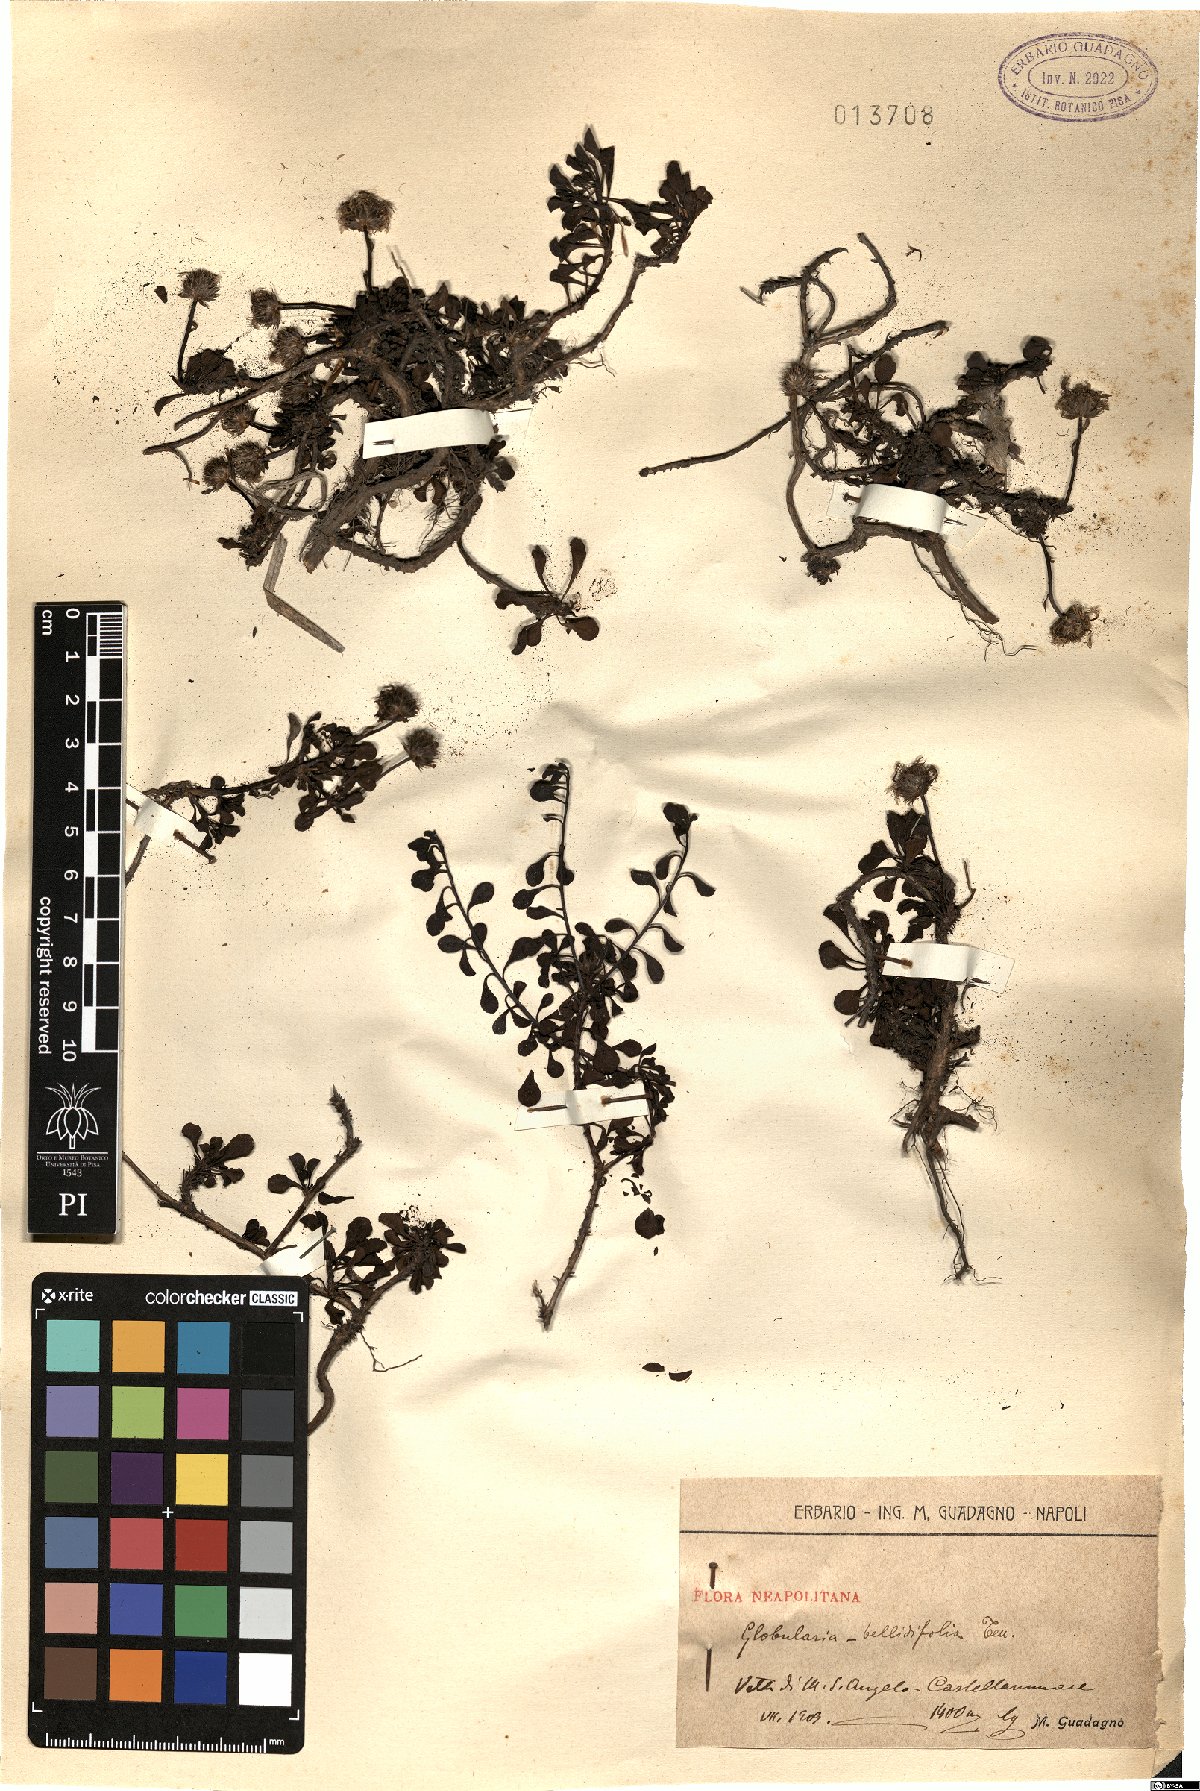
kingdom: Plantae
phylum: Tracheophyta
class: Magnoliopsida
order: Lamiales
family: Plantaginaceae
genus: Globularia
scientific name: Globularia meridionalis
